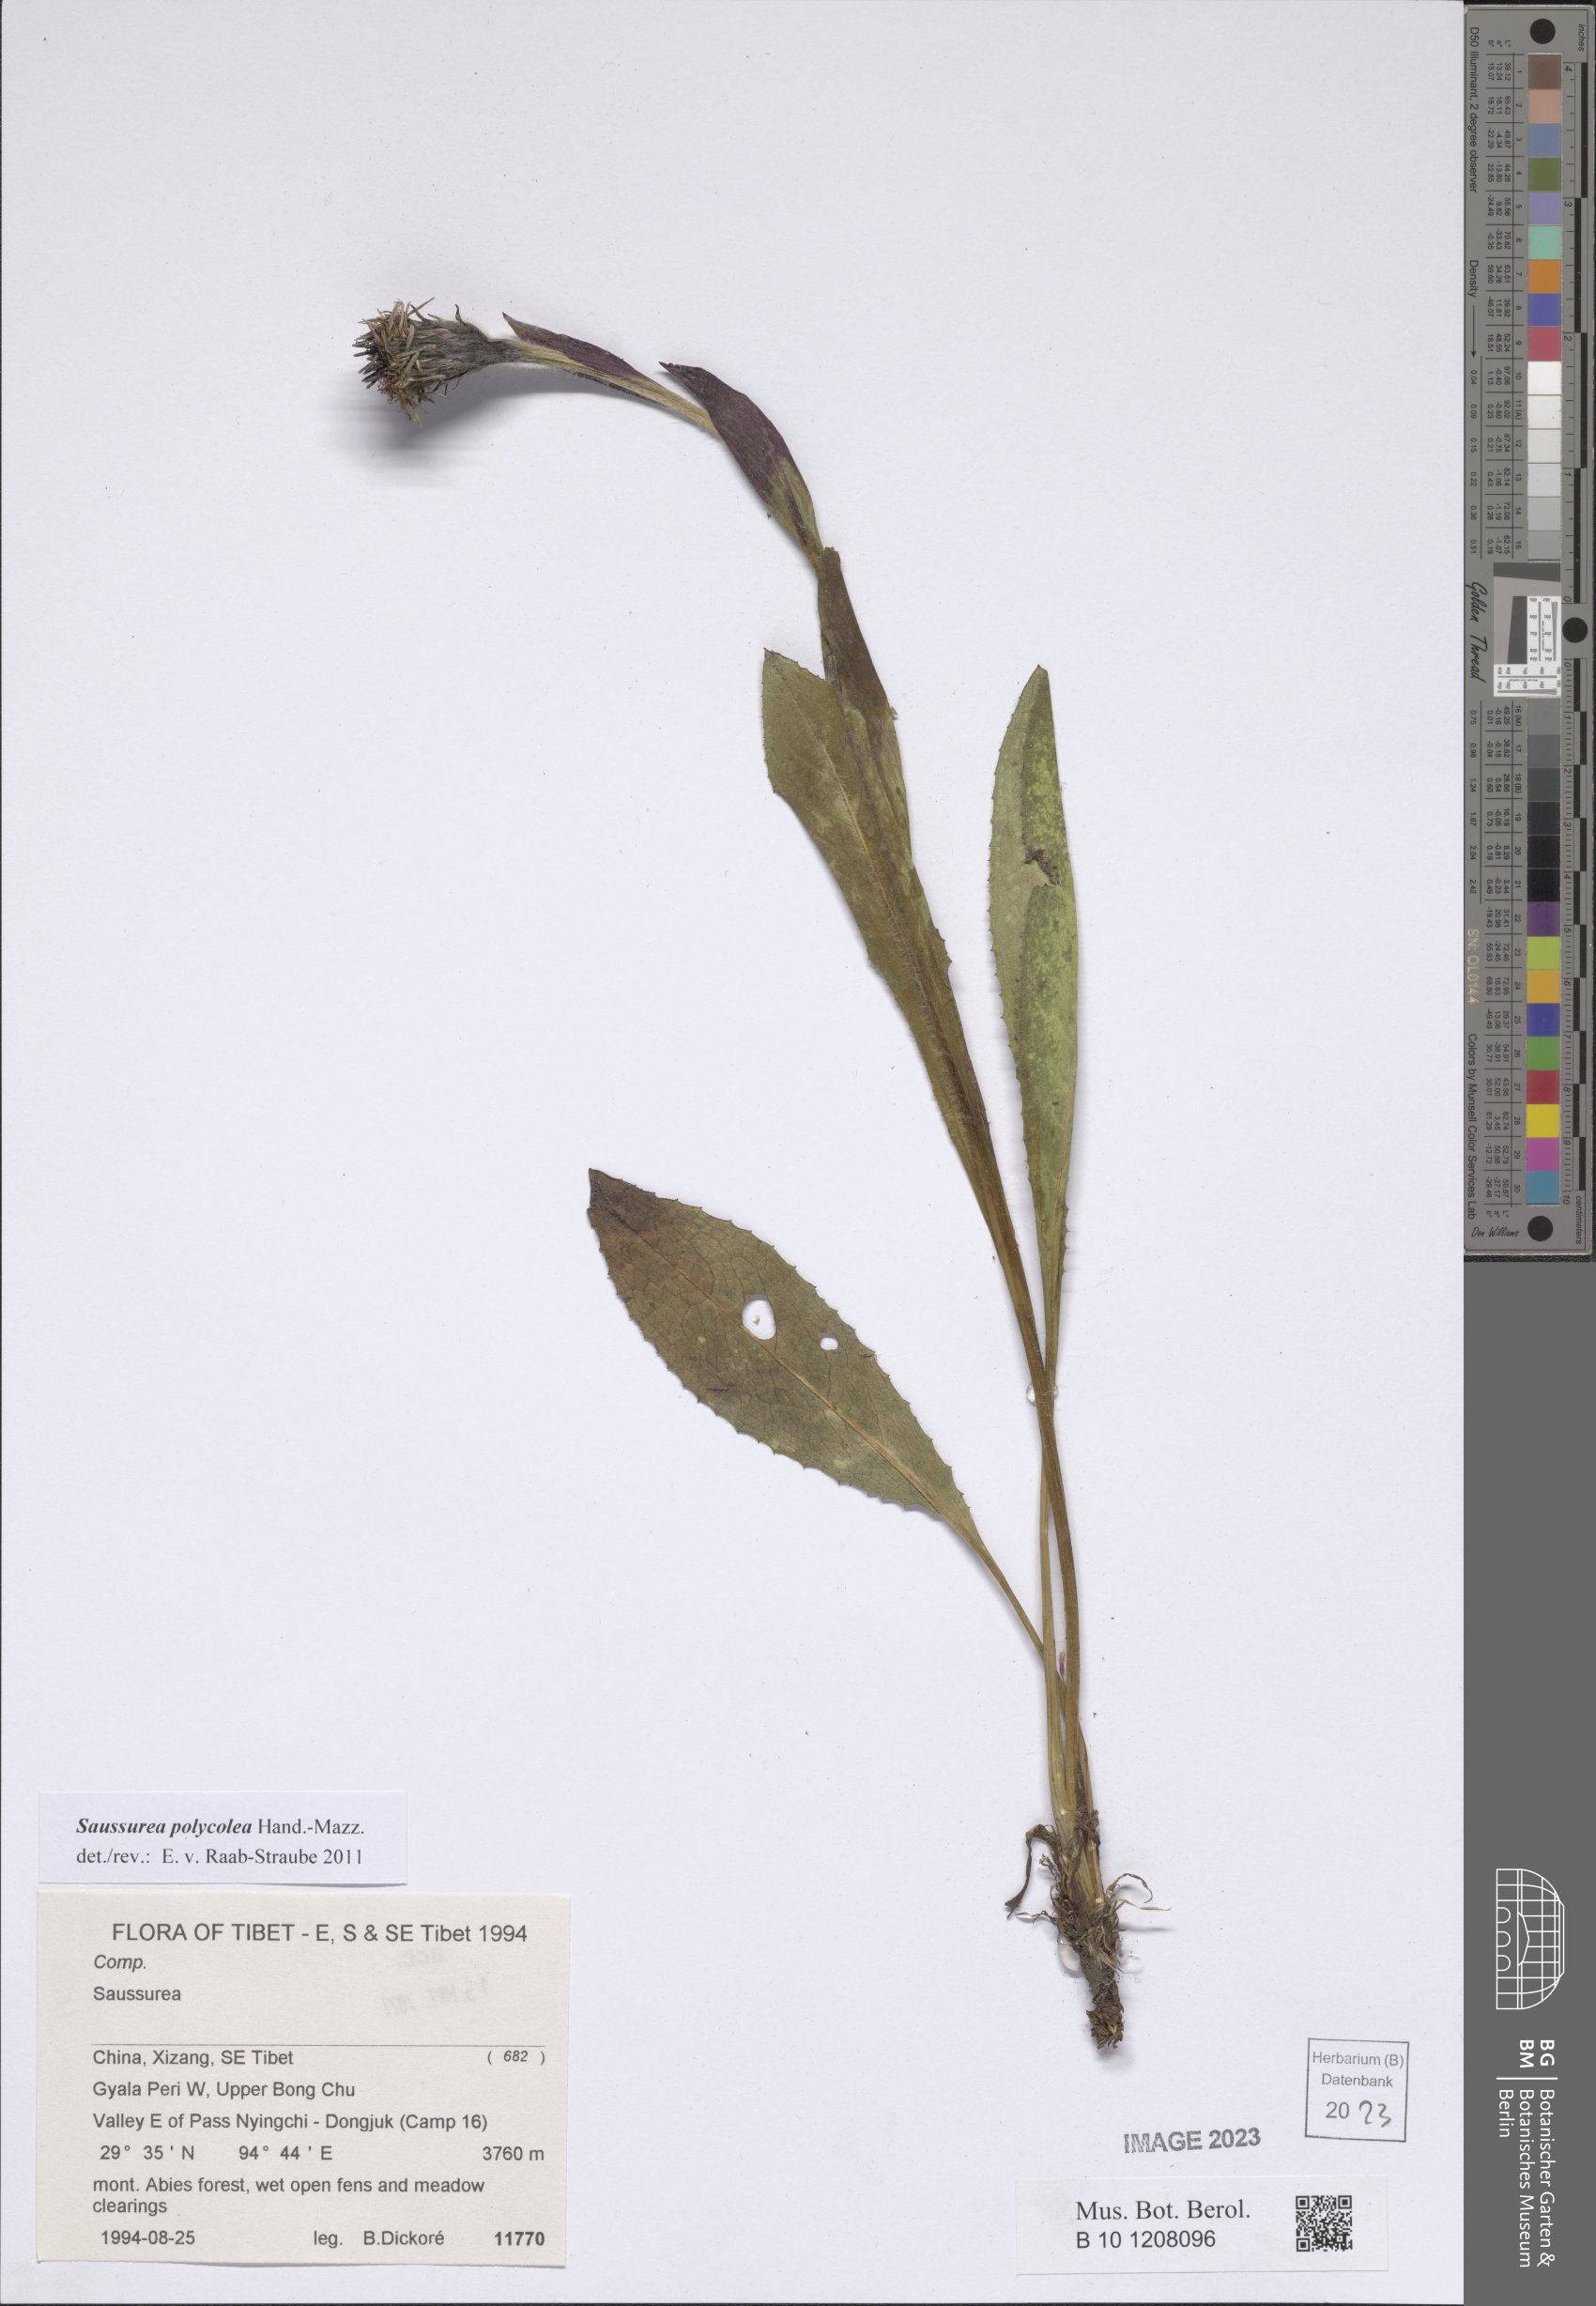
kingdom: Plantae
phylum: Tracheophyta
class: Magnoliopsida
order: Asterales
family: Asteraceae
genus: Saussurea
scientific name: Saussurea polycolea
